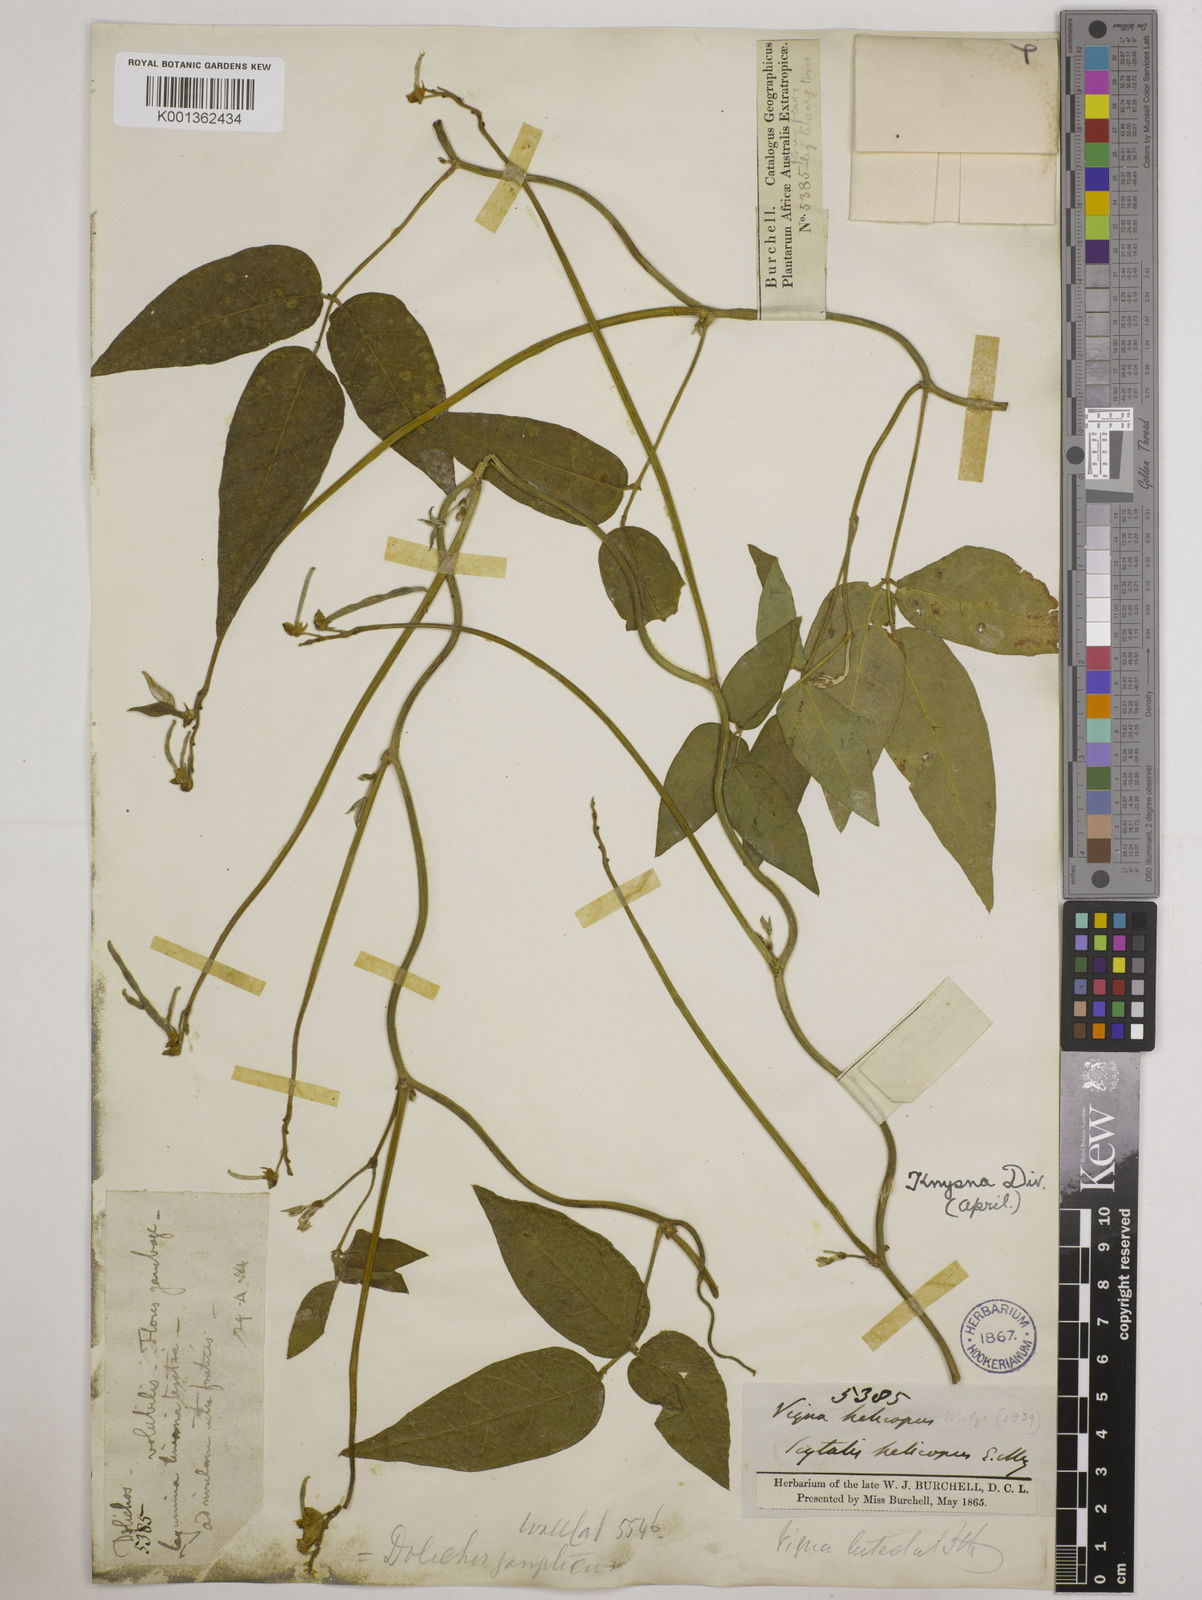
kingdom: Plantae
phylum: Tracheophyta
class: Magnoliopsida
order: Fabales
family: Fabaceae
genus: Vigna
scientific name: Vigna luteola
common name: Hairypod cowpea
